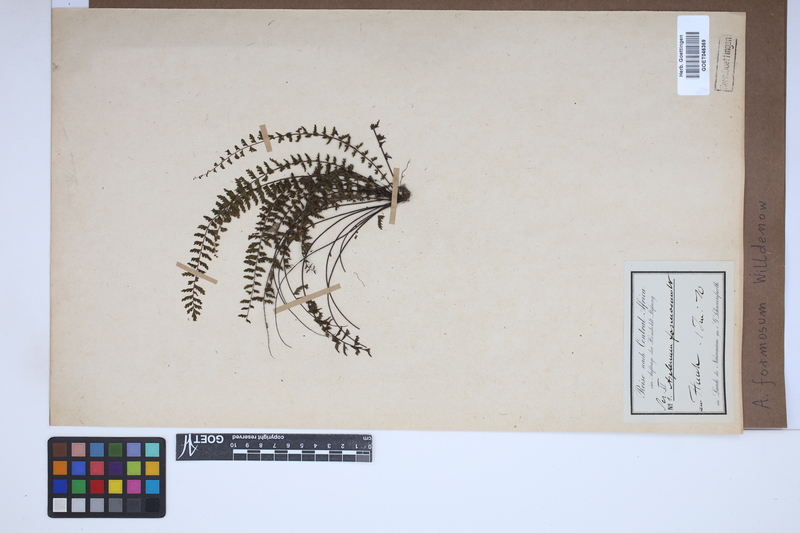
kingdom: Plantae
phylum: Tracheophyta
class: Polypodiopsida
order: Polypodiales
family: Aspleniaceae
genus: Asplenium
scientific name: Asplenium formosum
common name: Showy spleenwort
